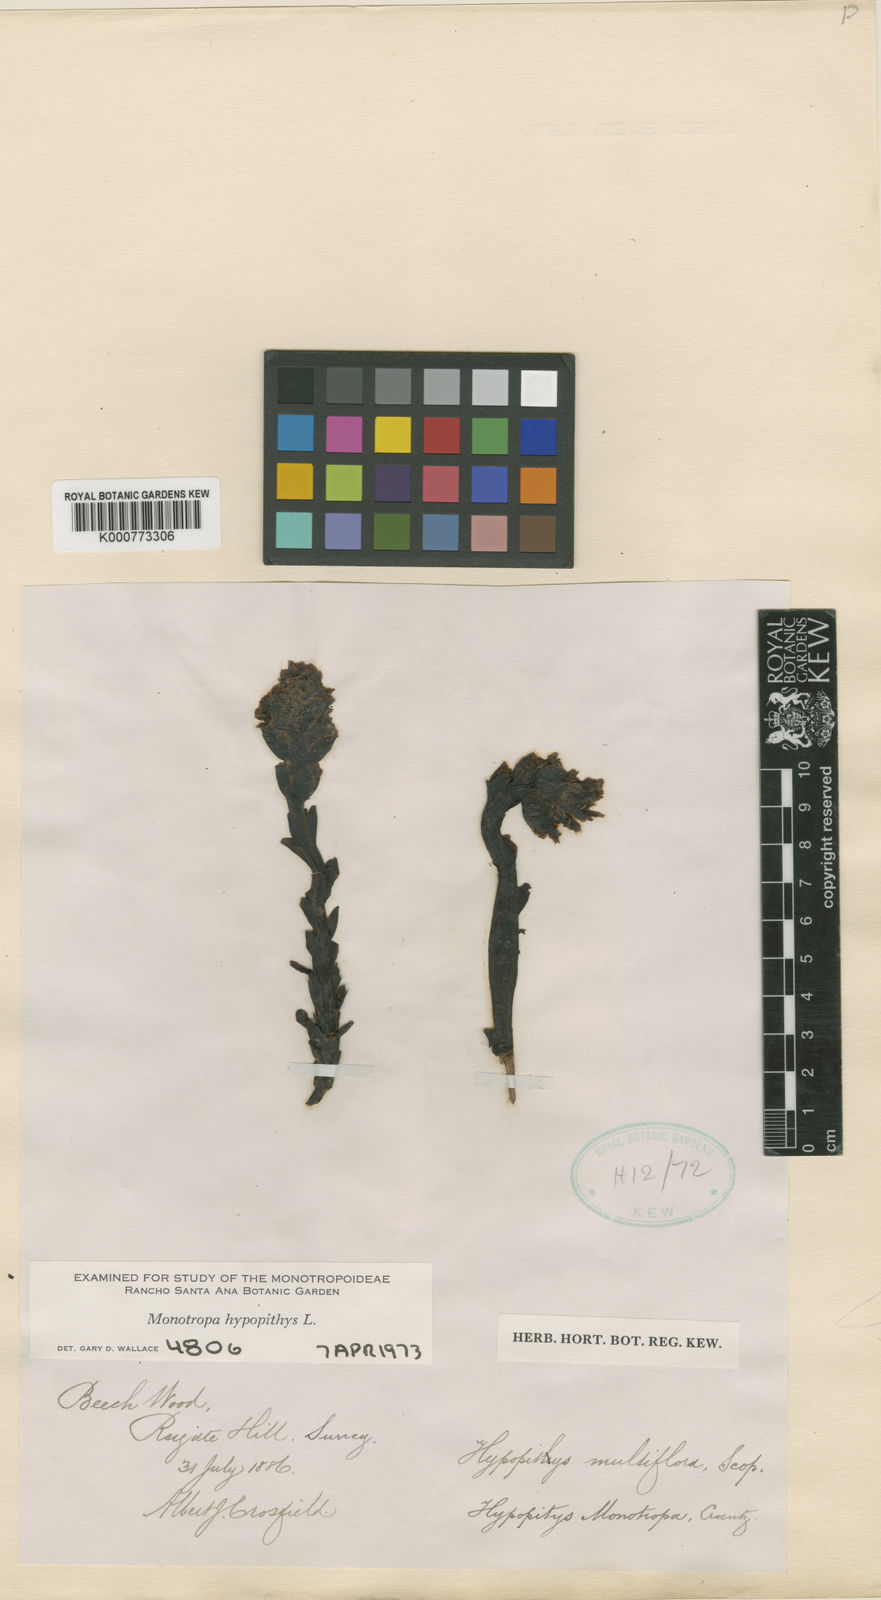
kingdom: Plantae
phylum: Tracheophyta
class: Magnoliopsida
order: Ericales
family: Ericaceae
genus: Monotropa
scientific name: Monotropa
